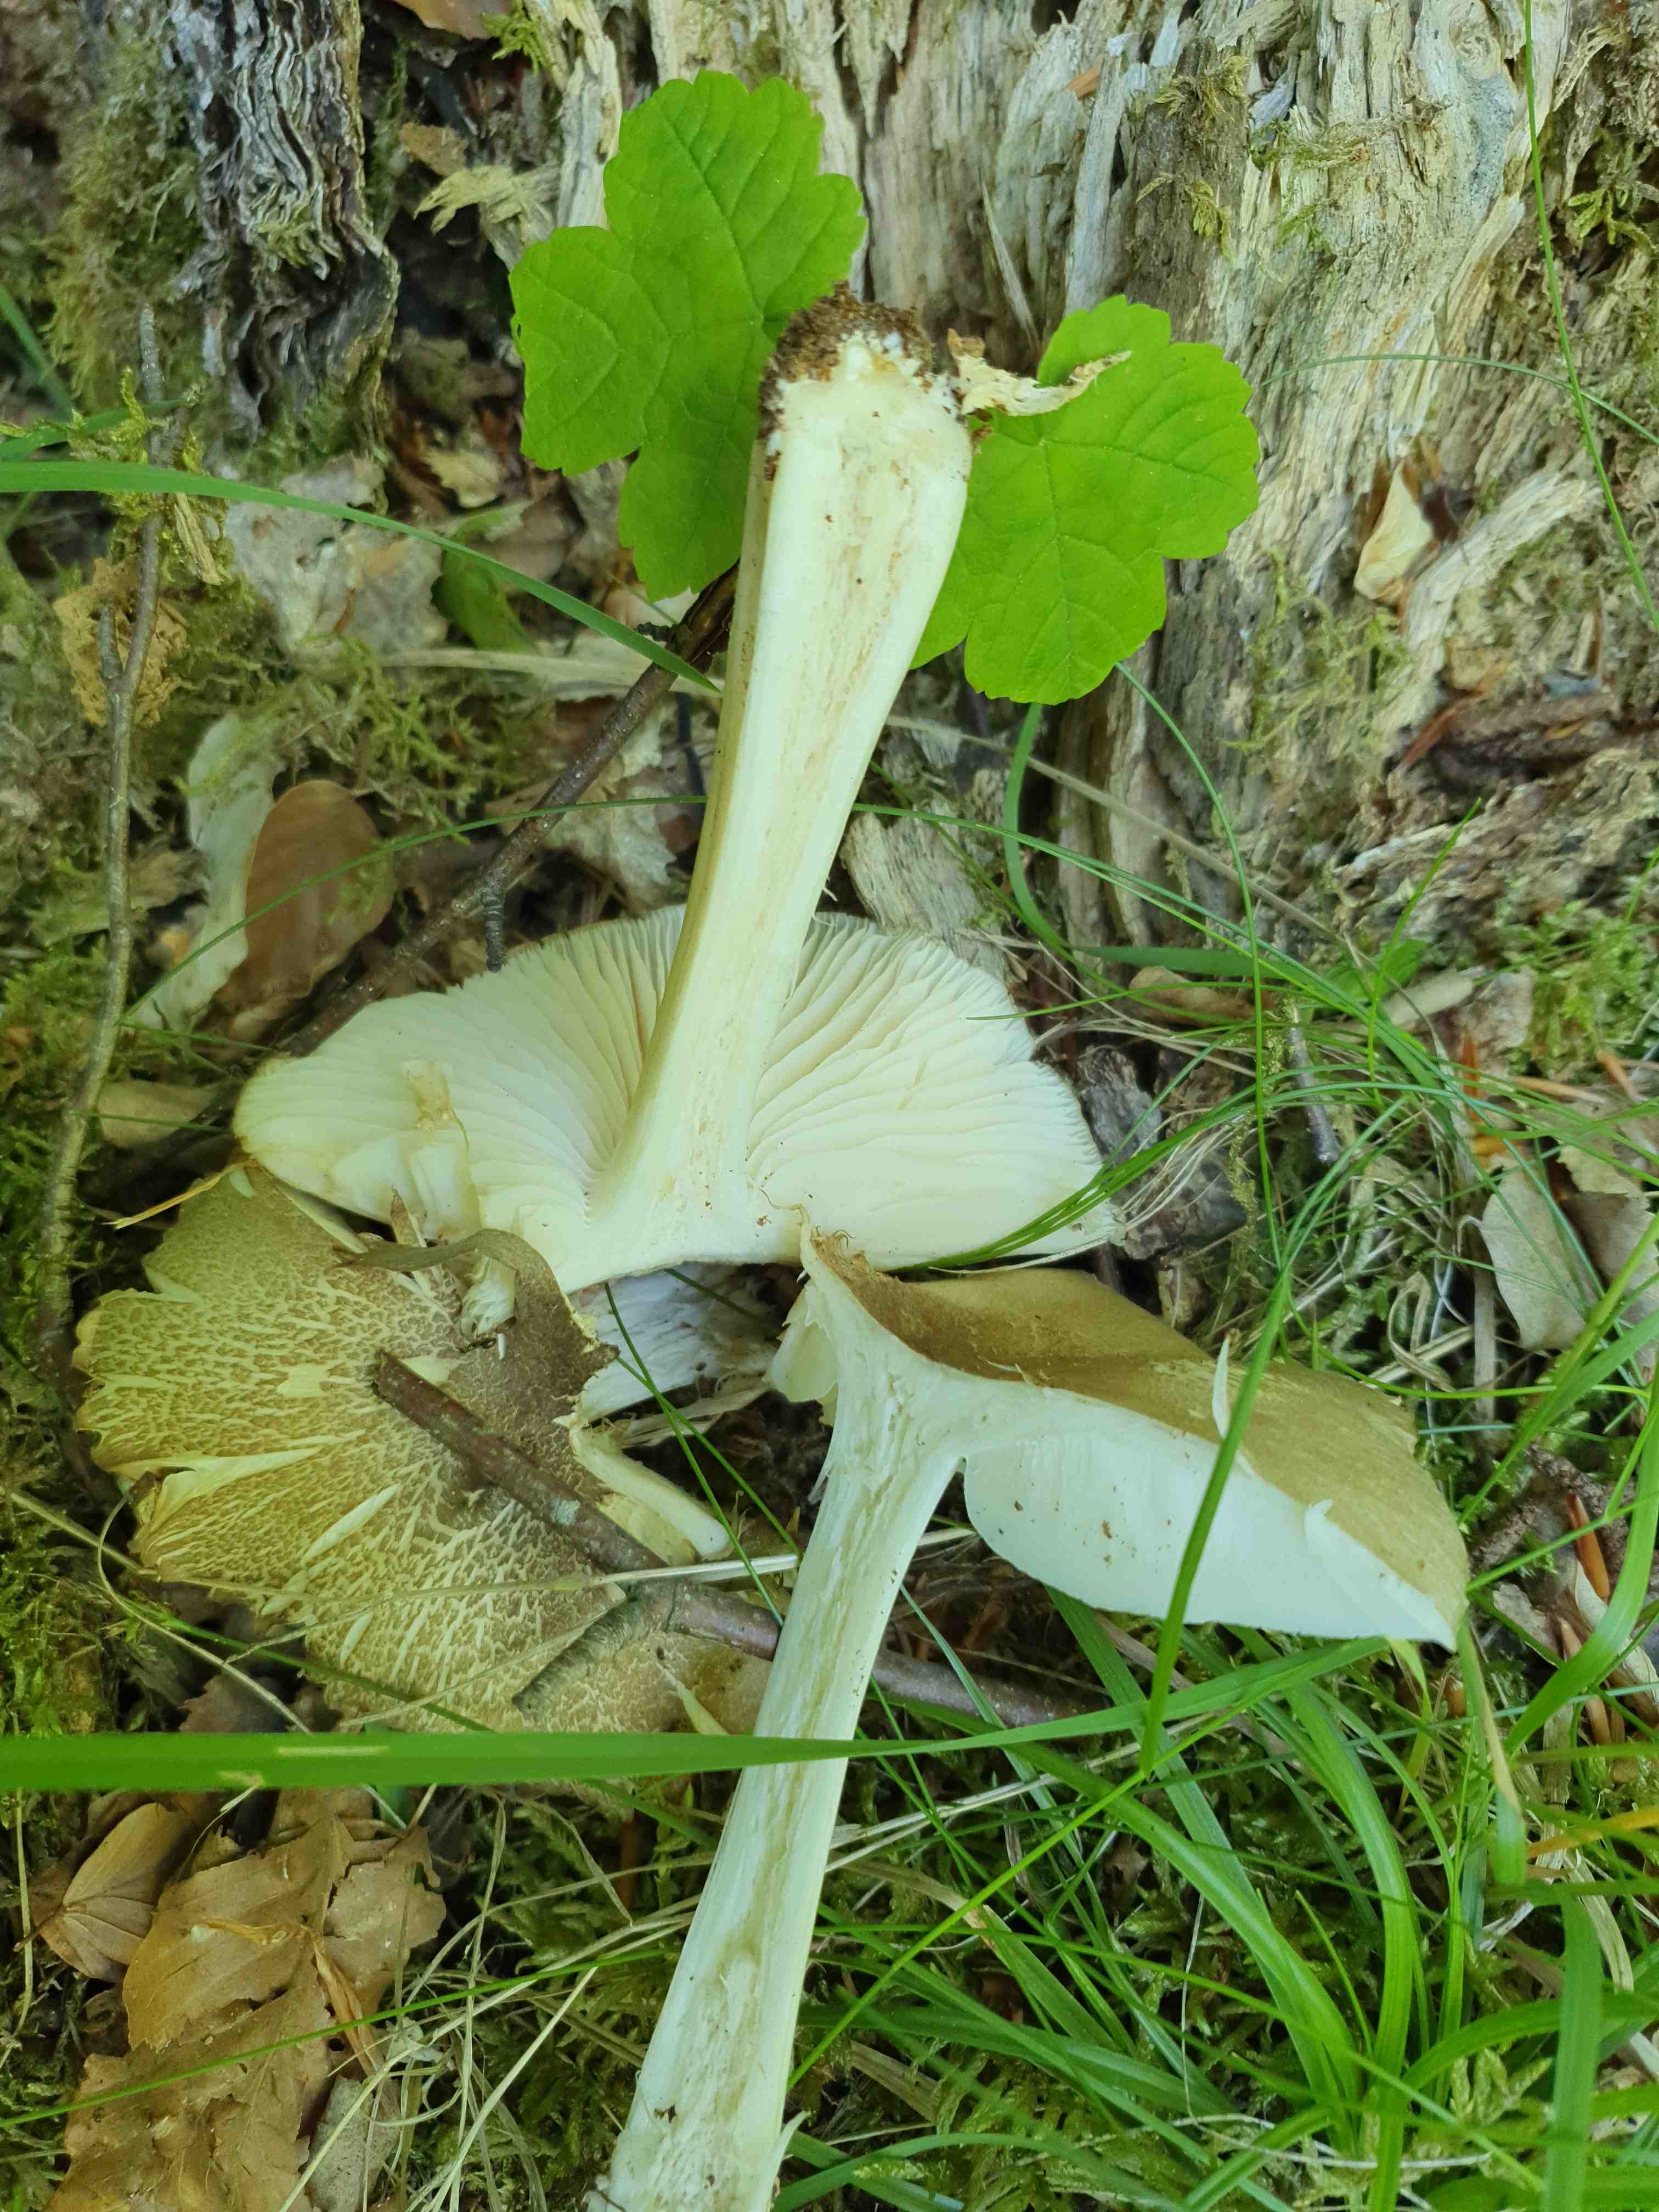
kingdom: Fungi
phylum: Basidiomycota
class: Agaricomycetes
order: Agaricales
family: Tricholomataceae
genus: Megacollybia
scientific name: Megacollybia platyphylla
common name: bredbladet væbnerhat
